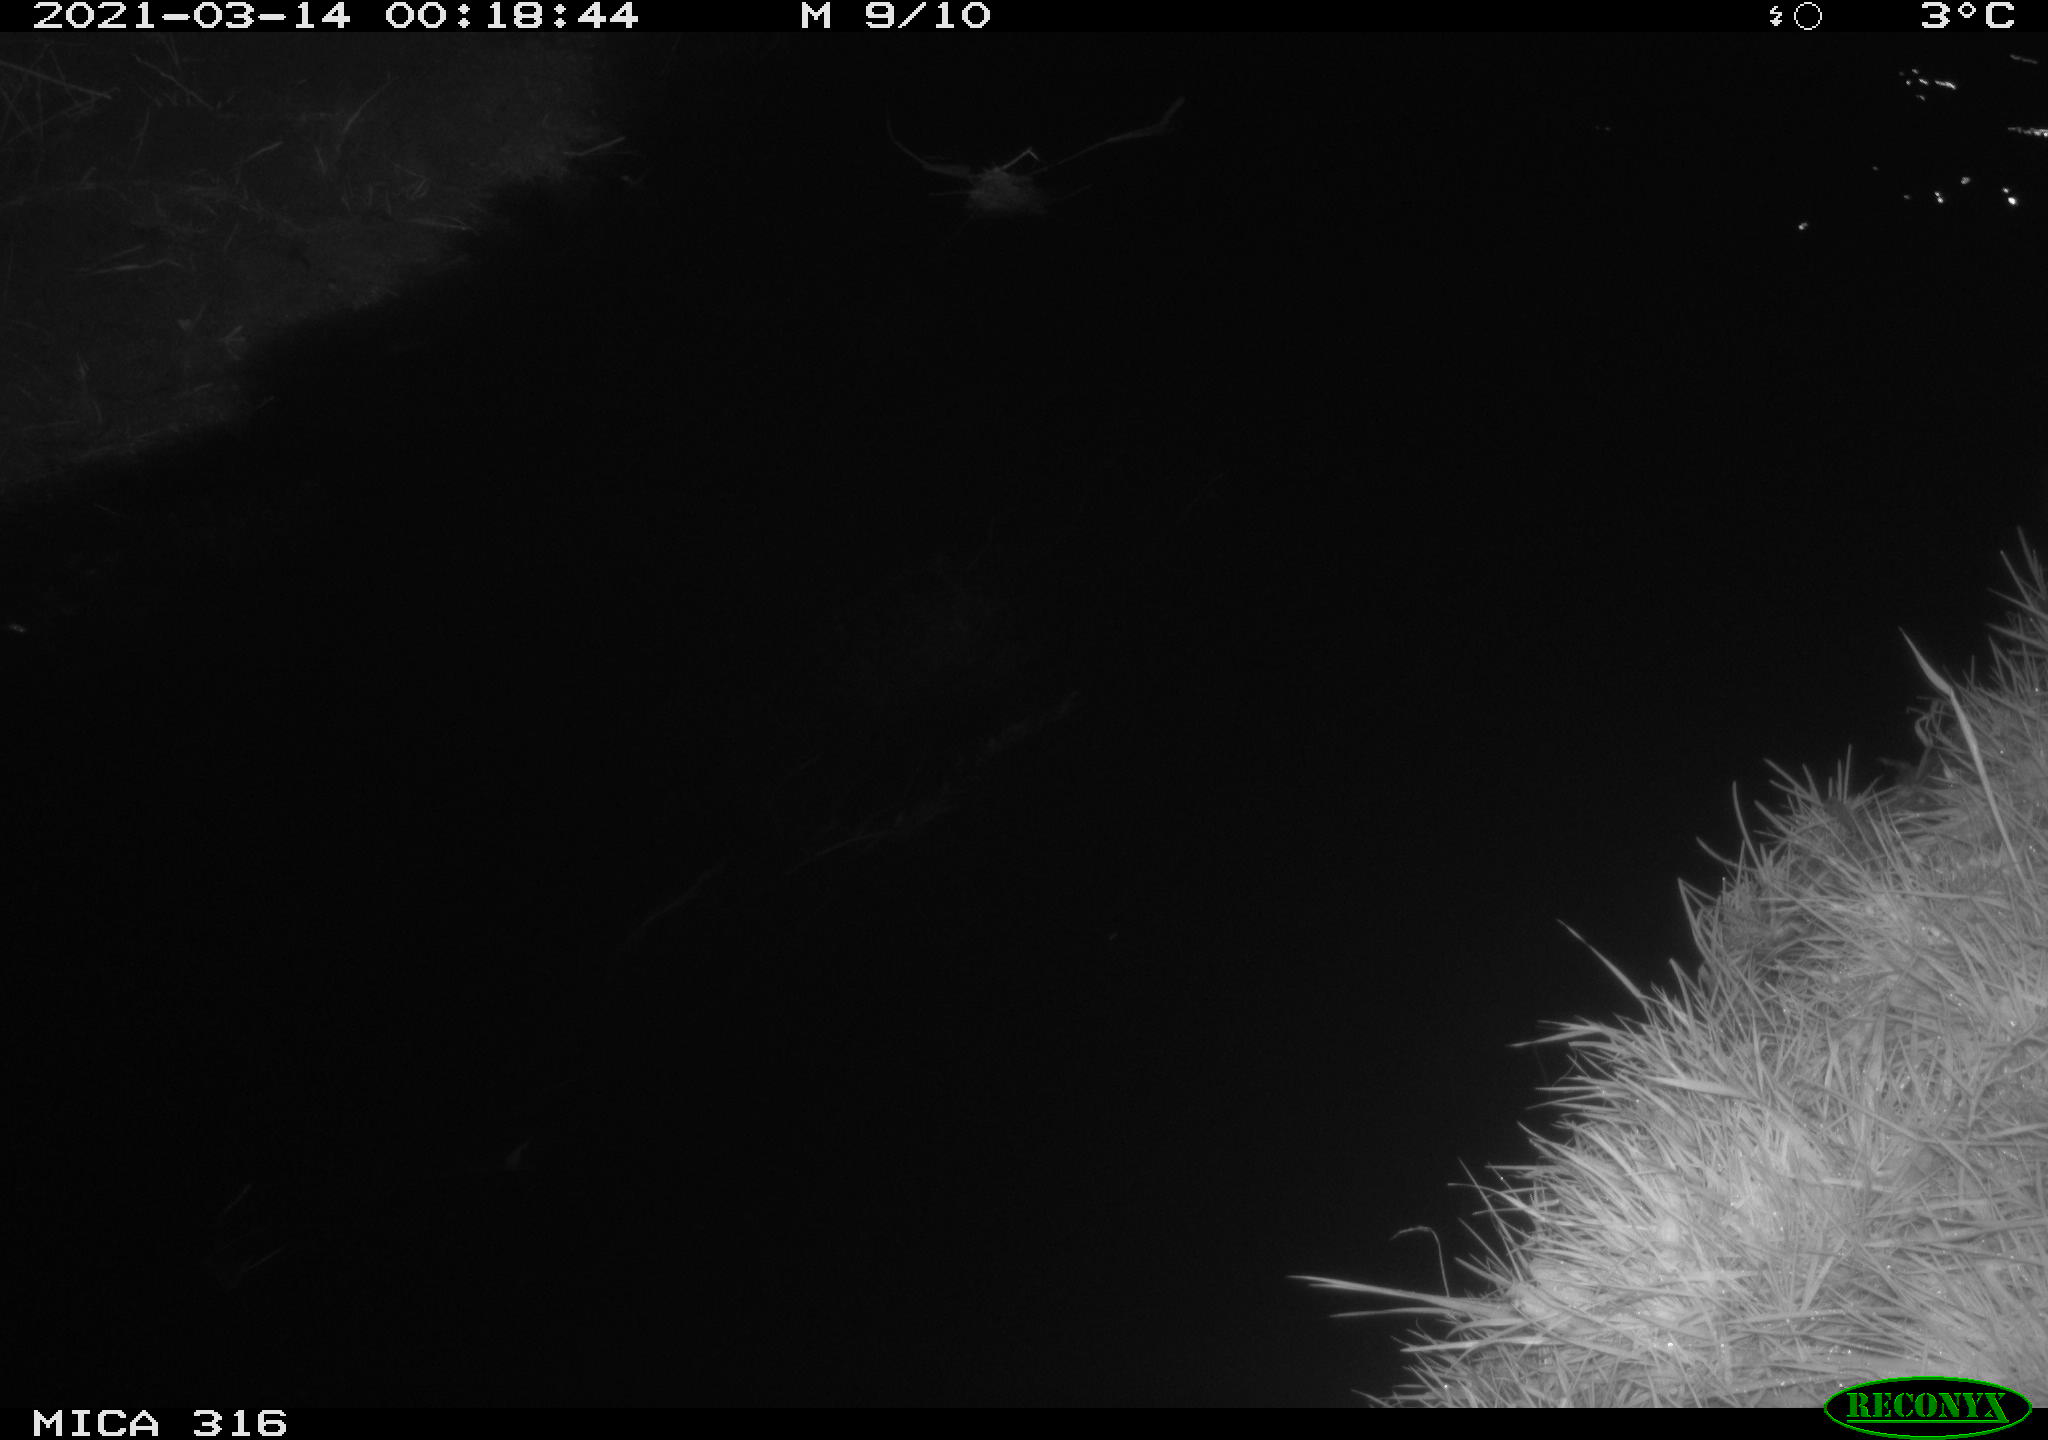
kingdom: Animalia
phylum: Chordata
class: Aves
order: Anseriformes
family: Anatidae
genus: Anas
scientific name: Anas platyrhynchos
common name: Mallard
